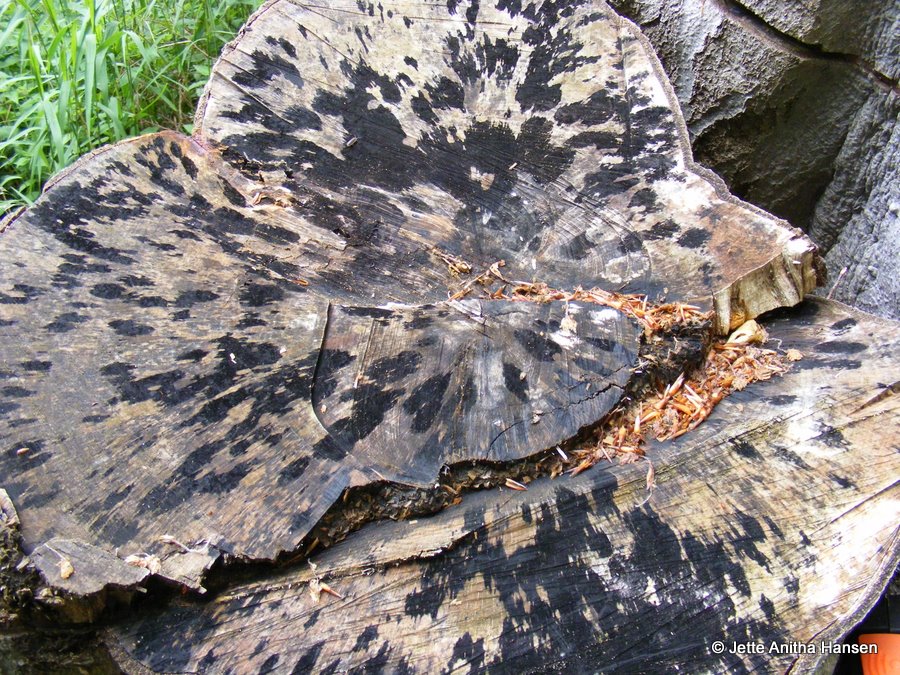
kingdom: Fungi
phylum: Ascomycota
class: Leotiomycetes
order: Helotiales
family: Helotiaceae
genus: Bispora
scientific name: Bispora pallescens
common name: måtte-snitskive
